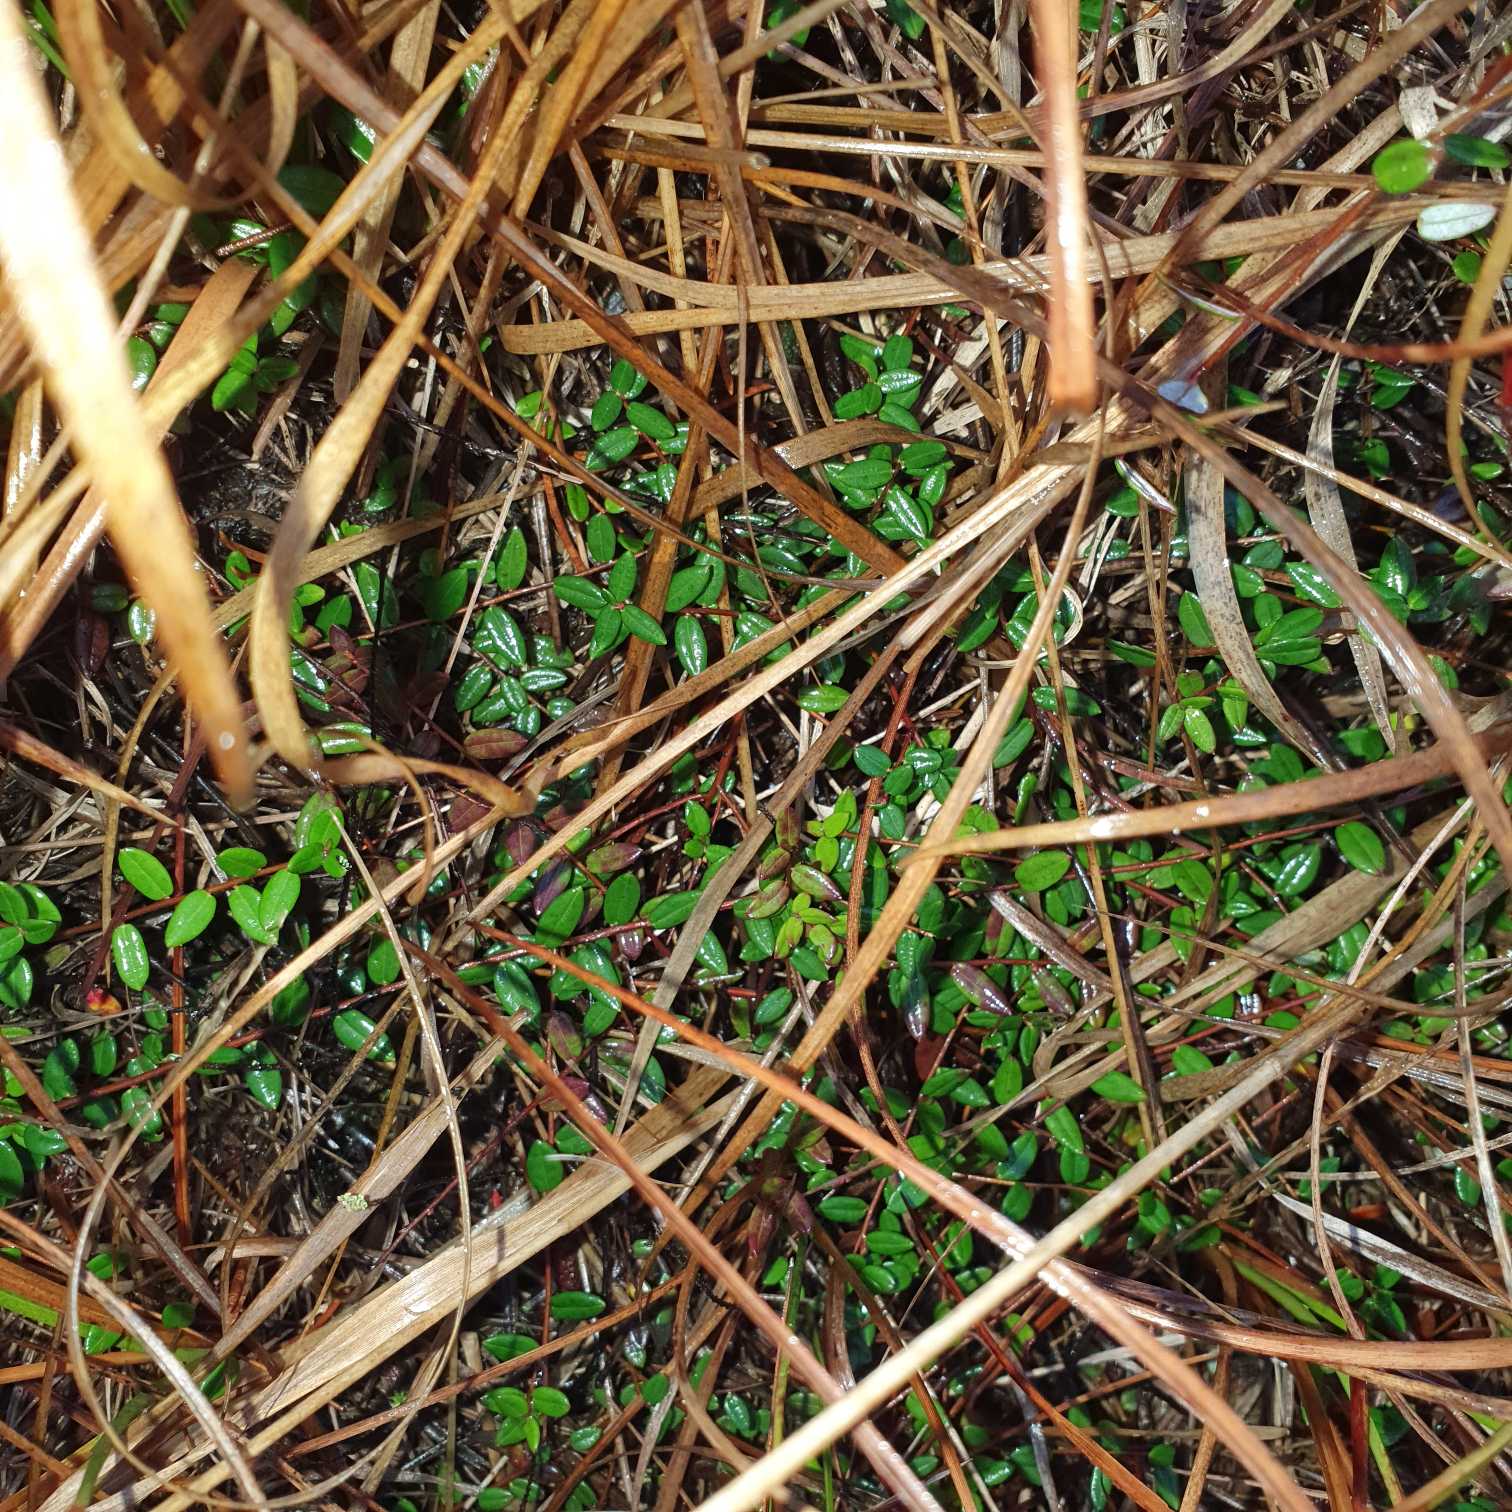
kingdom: Plantae
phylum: Tracheophyta
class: Magnoliopsida
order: Ericales
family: Ericaceae
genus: Vaccinium
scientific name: Vaccinium oxycoccos
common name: Tranebær
